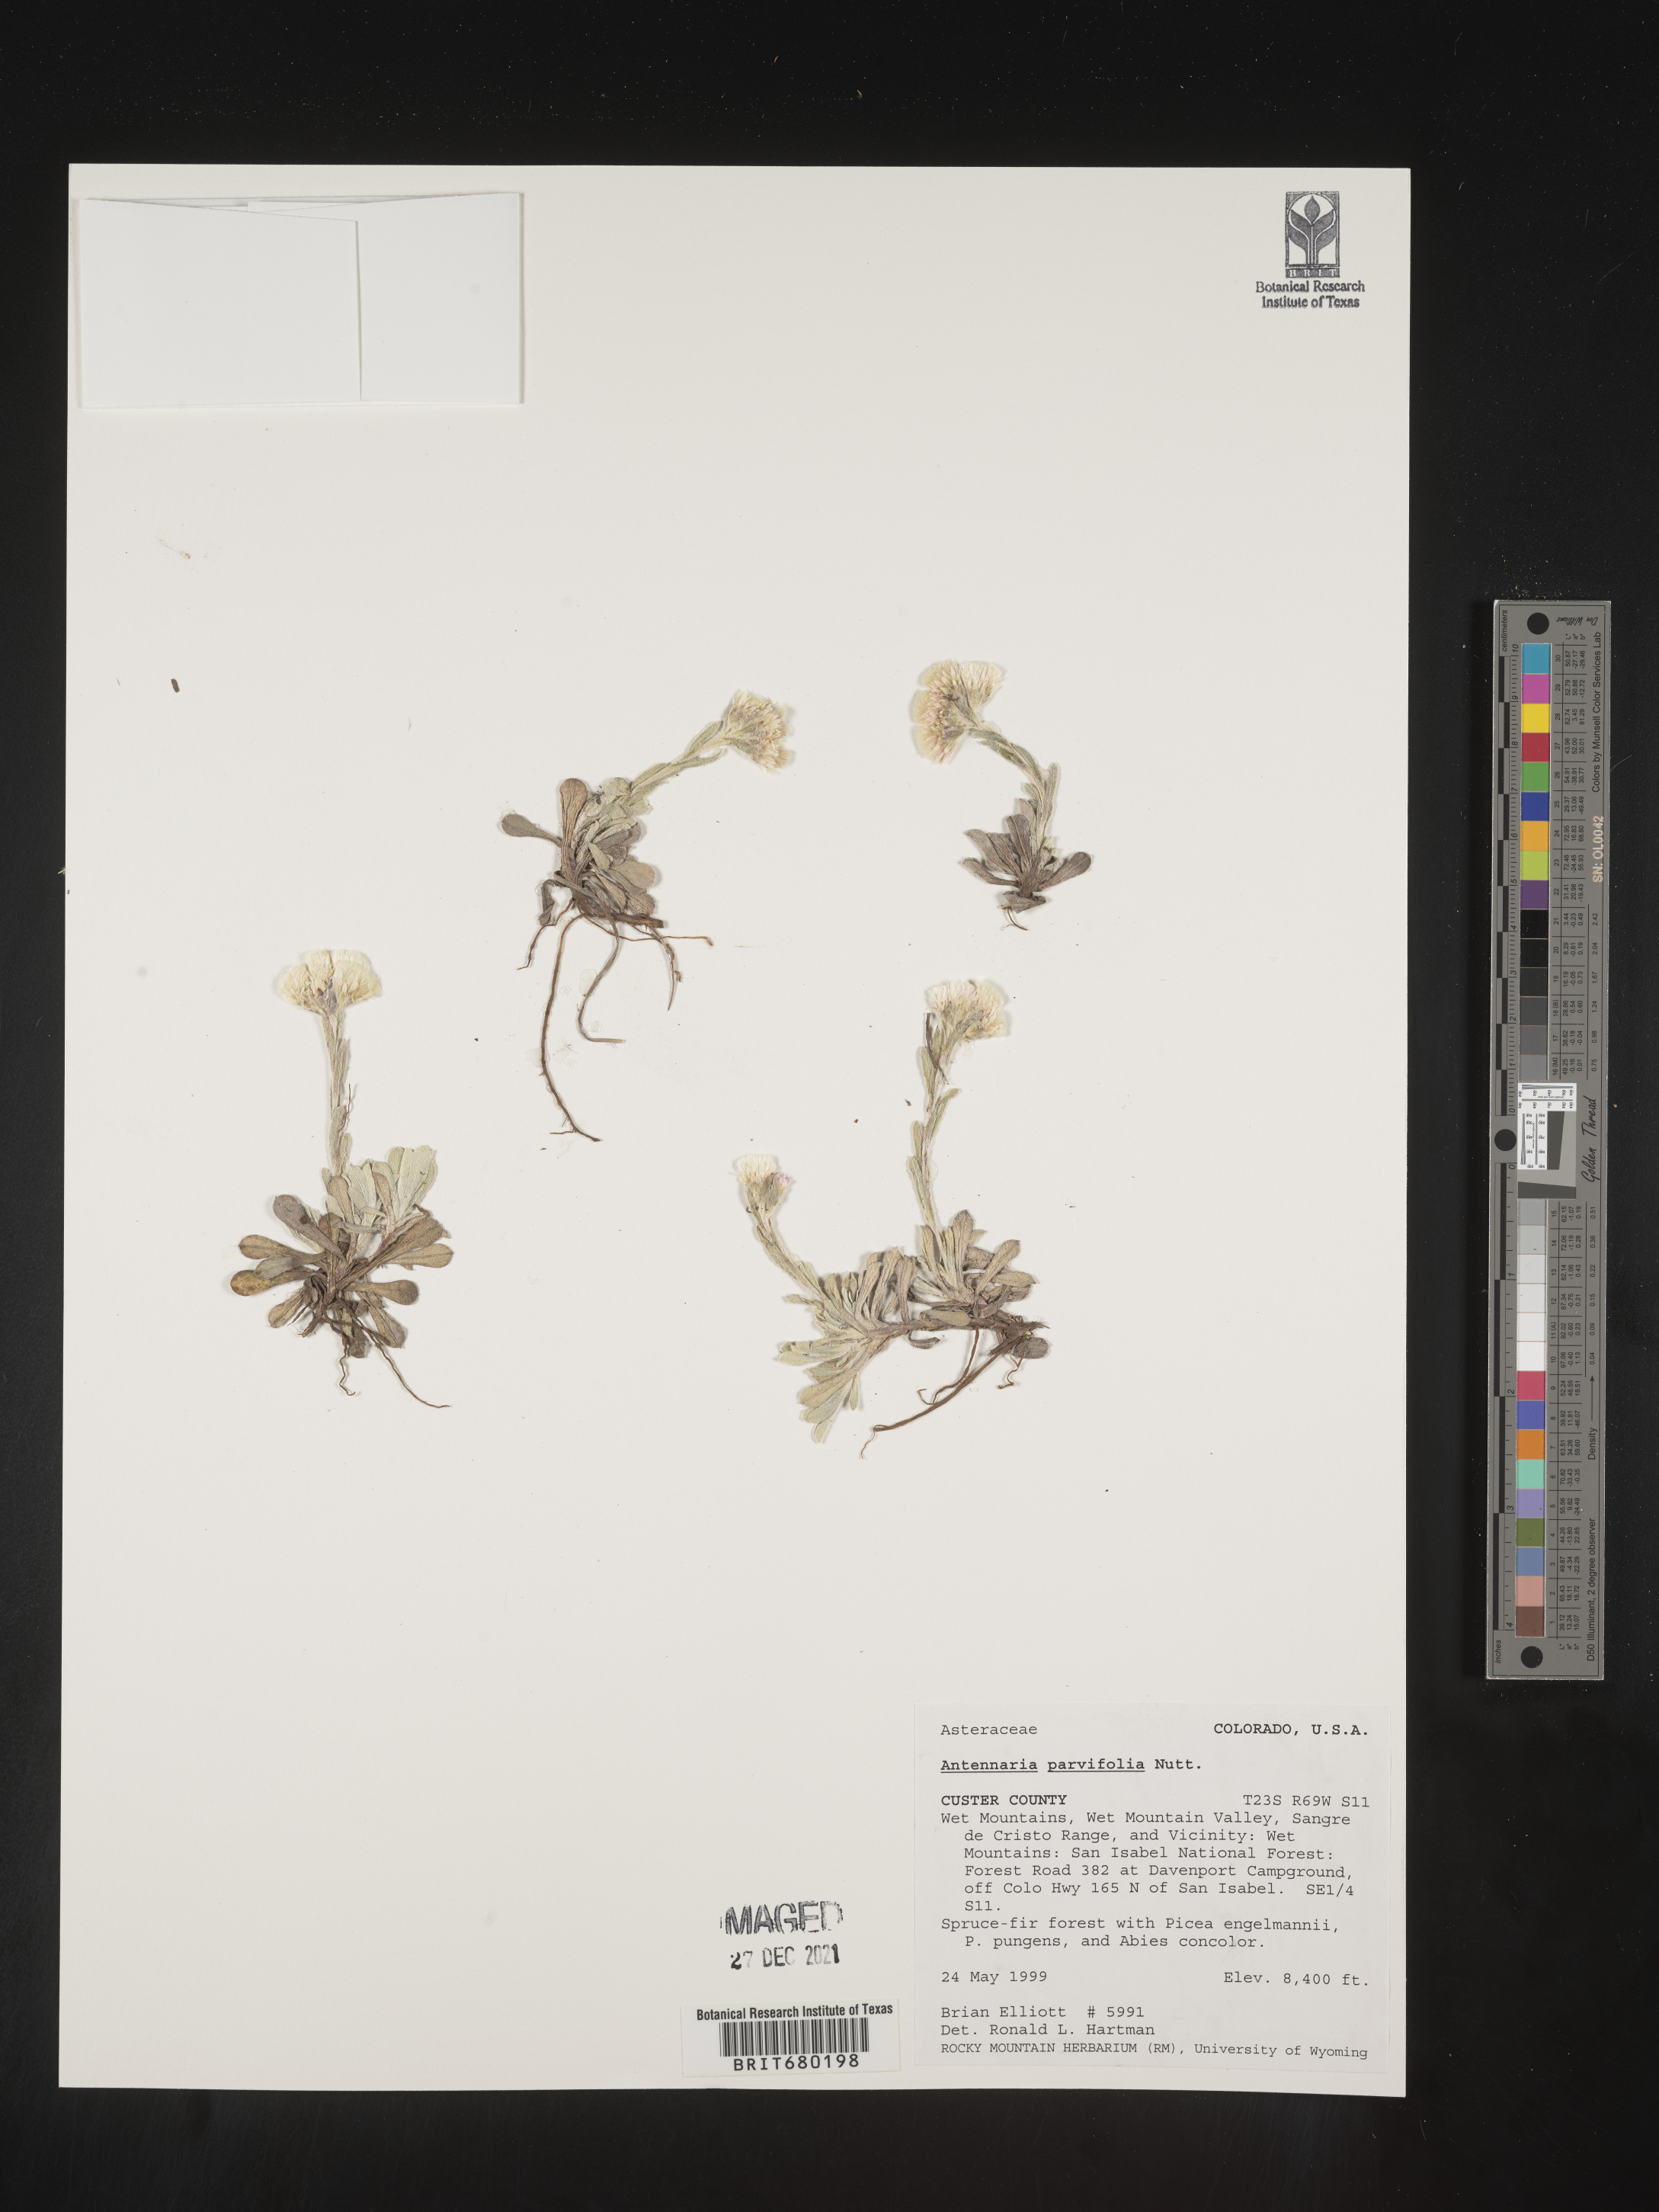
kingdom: Plantae
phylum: Tracheophyta
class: Magnoliopsida
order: Asterales
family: Asteraceae
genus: Antennaria
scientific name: Antennaria plantaginifolia
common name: Plantain-leaved pussytoes
